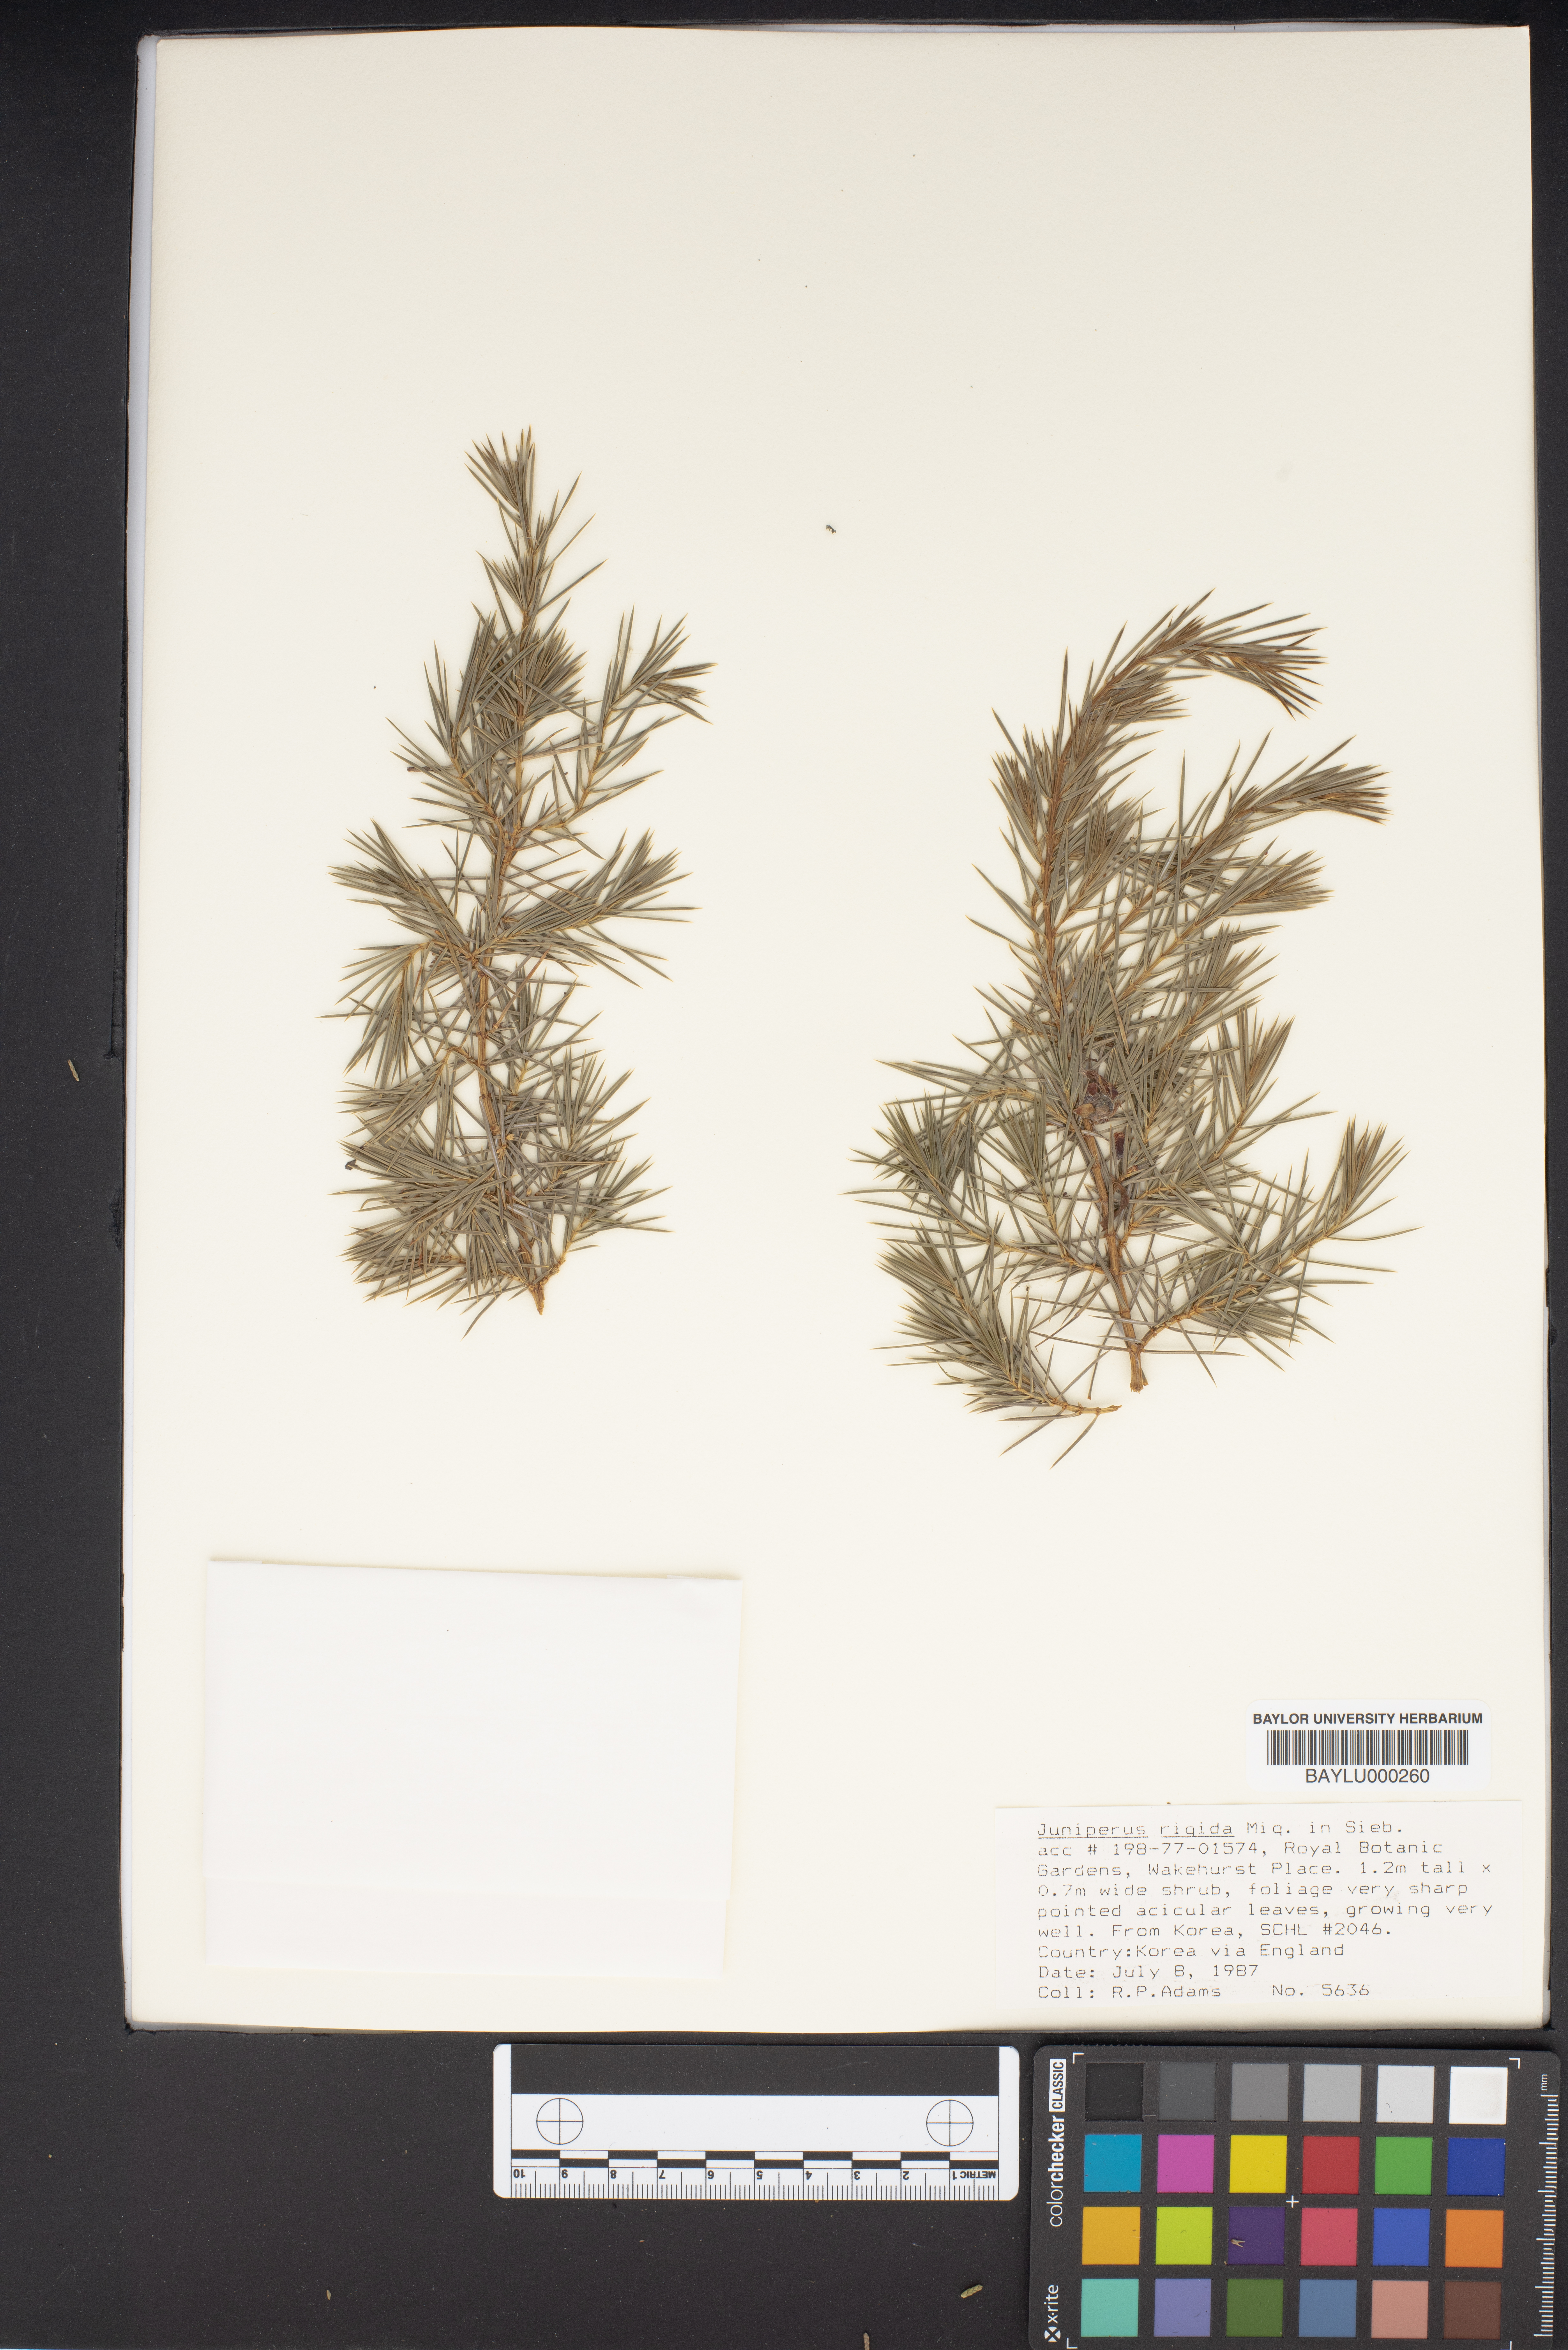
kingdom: Plantae
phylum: Tracheophyta
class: Pinopsida
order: Pinales
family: Cupressaceae
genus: Juniperus
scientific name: Juniperus rigida
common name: Needle juniper
